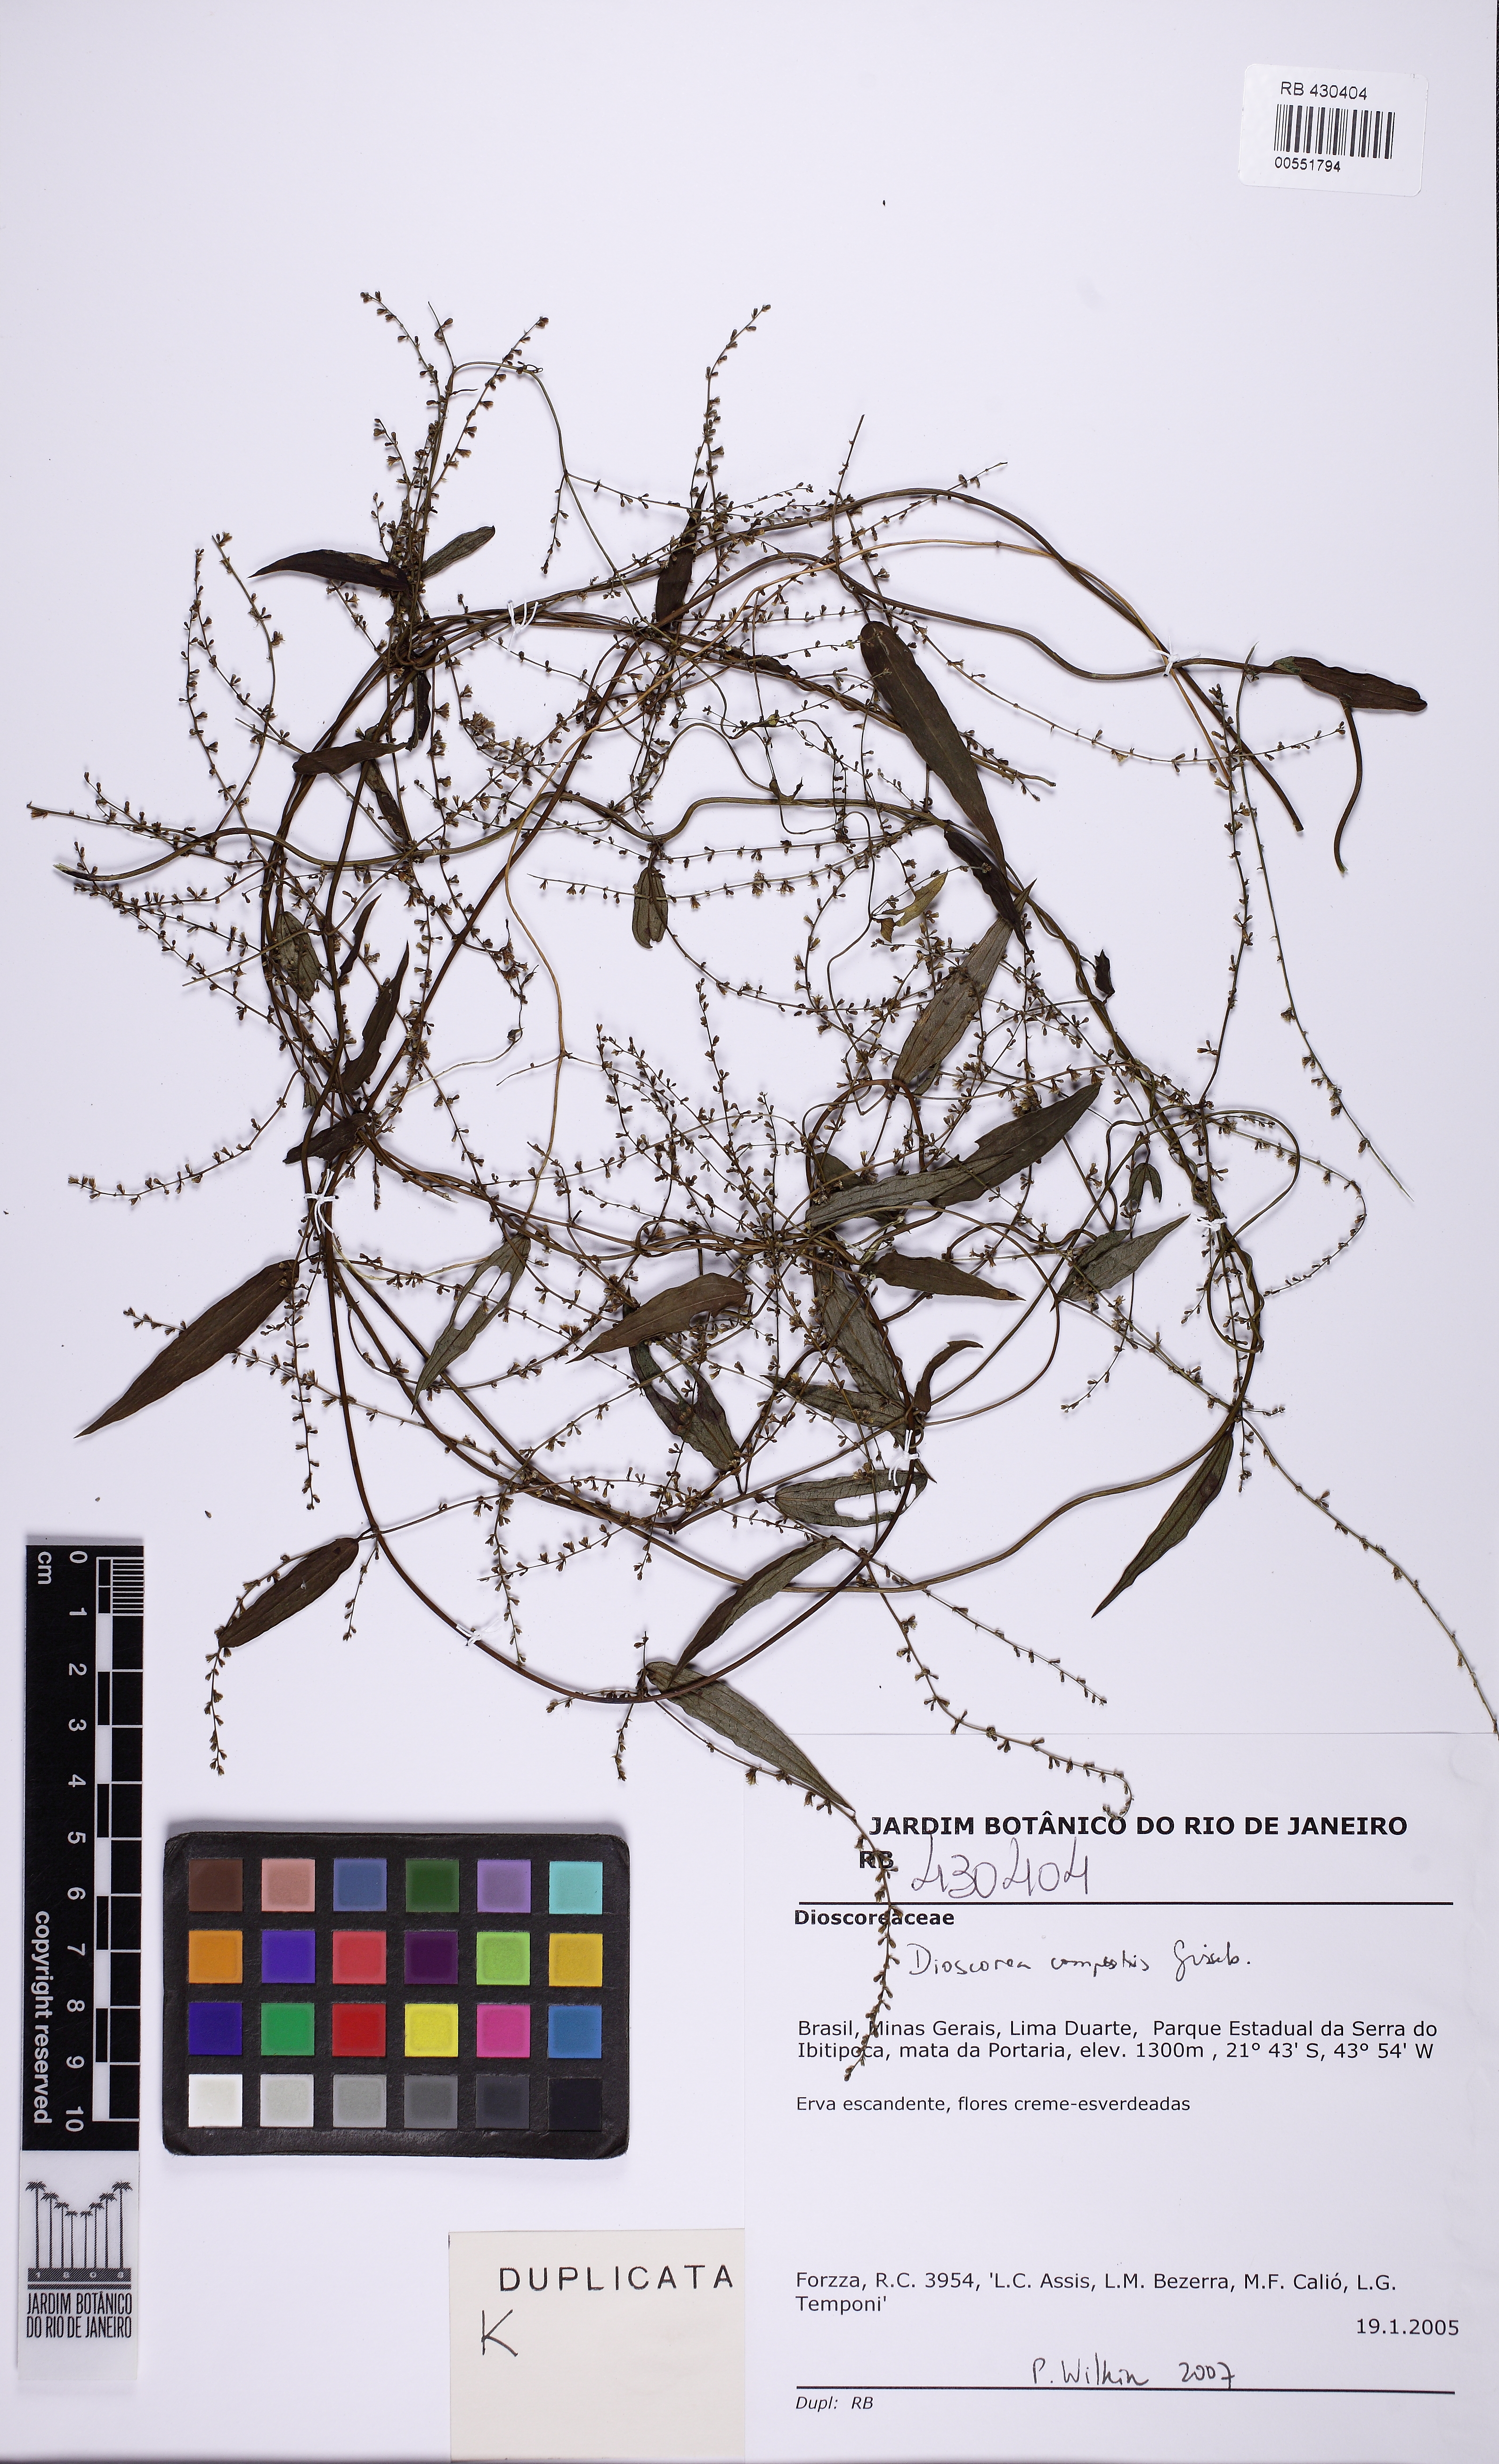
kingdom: Plantae
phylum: Tracheophyta
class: Liliopsida
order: Dioscoreales
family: Dioscoreaceae
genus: Dioscorea
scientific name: Dioscorea campestris
